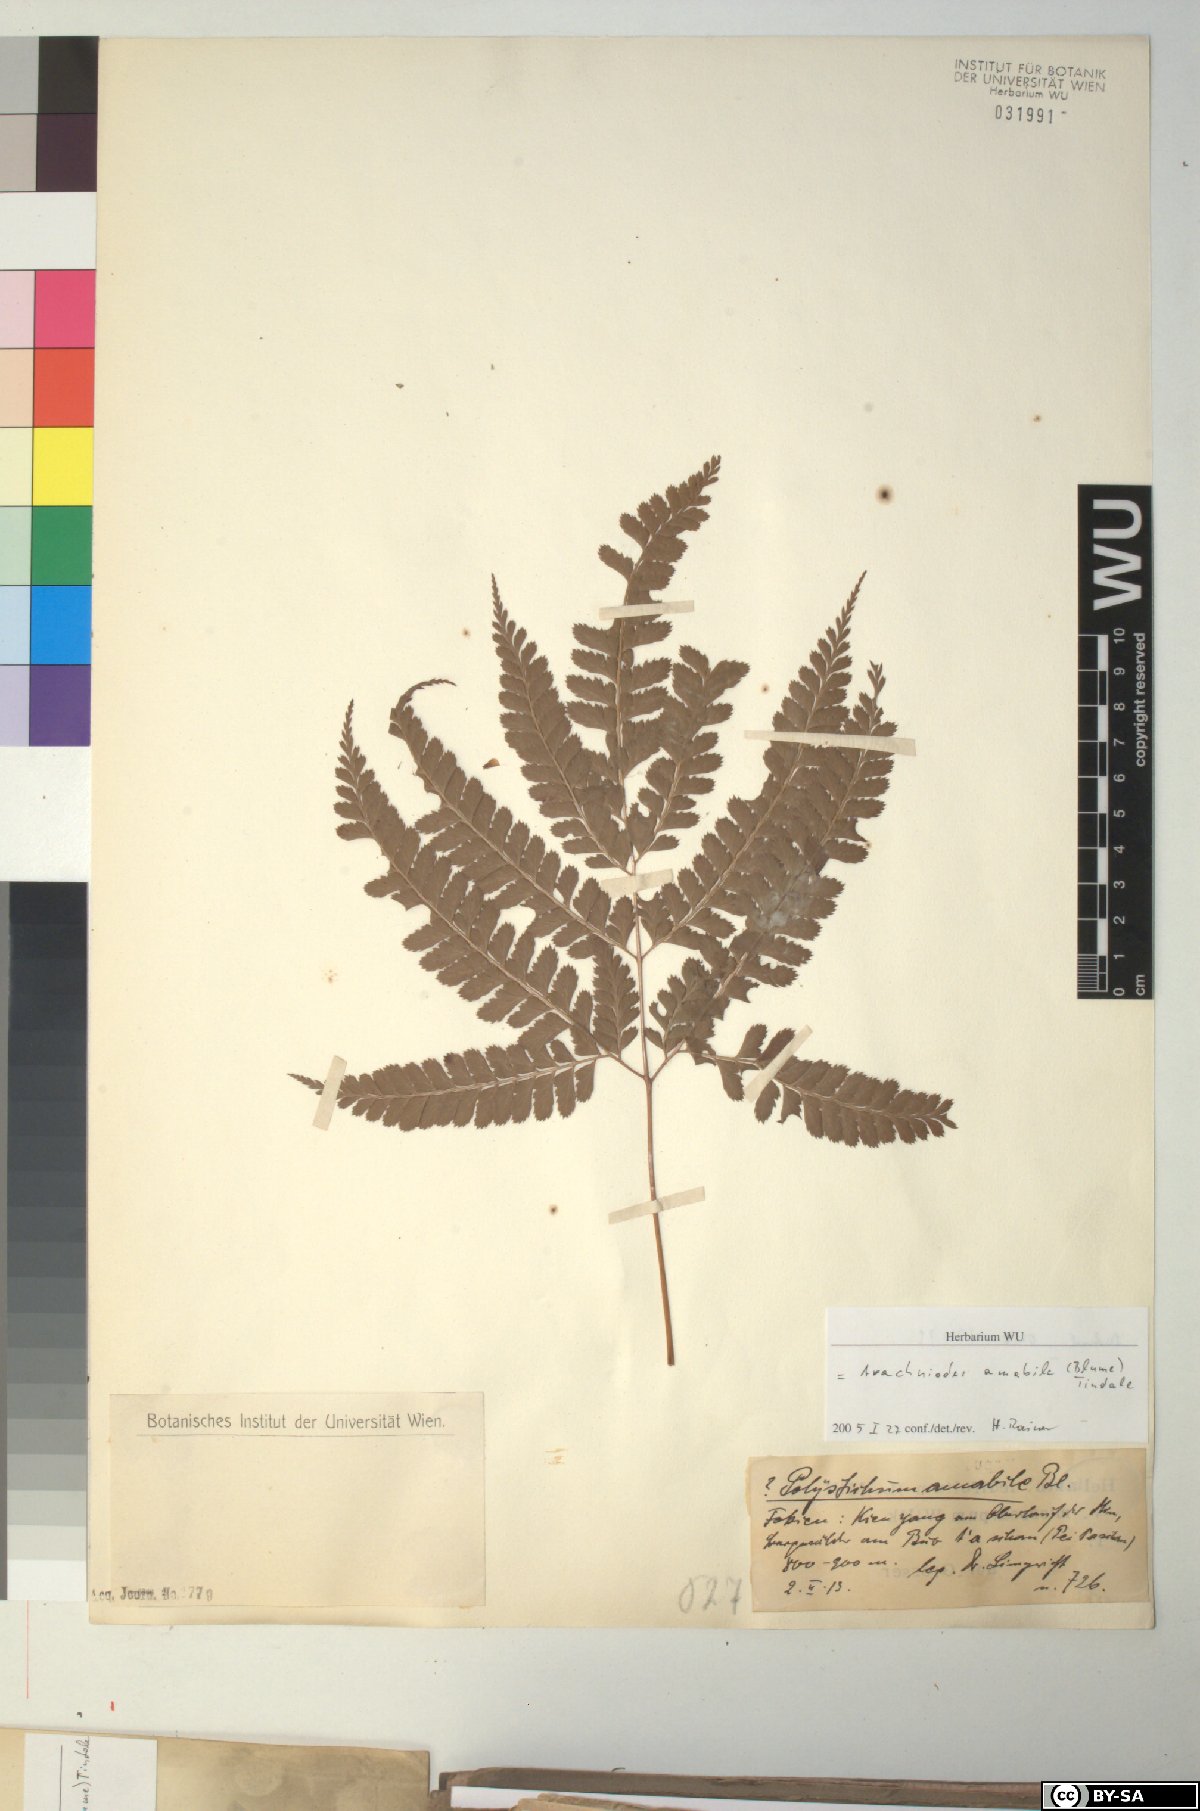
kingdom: Plantae
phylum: Tracheophyta
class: Polypodiopsida
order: Polypodiales
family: Dryopteridaceae
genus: Arachniodes
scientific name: Arachniodes amabilis
